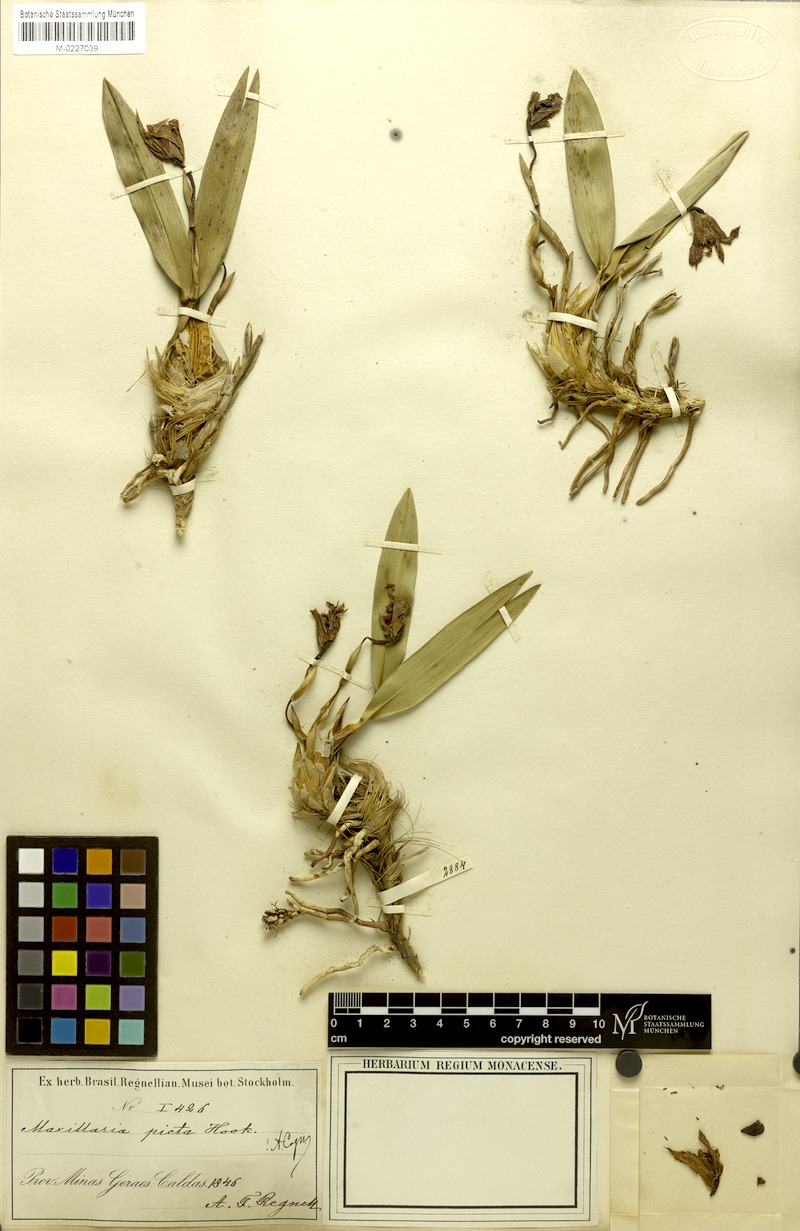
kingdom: Plantae
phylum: Tracheophyta
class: Liliopsida
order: Asparagales
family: Orchidaceae
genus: Maxillaria
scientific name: Maxillaria picta
